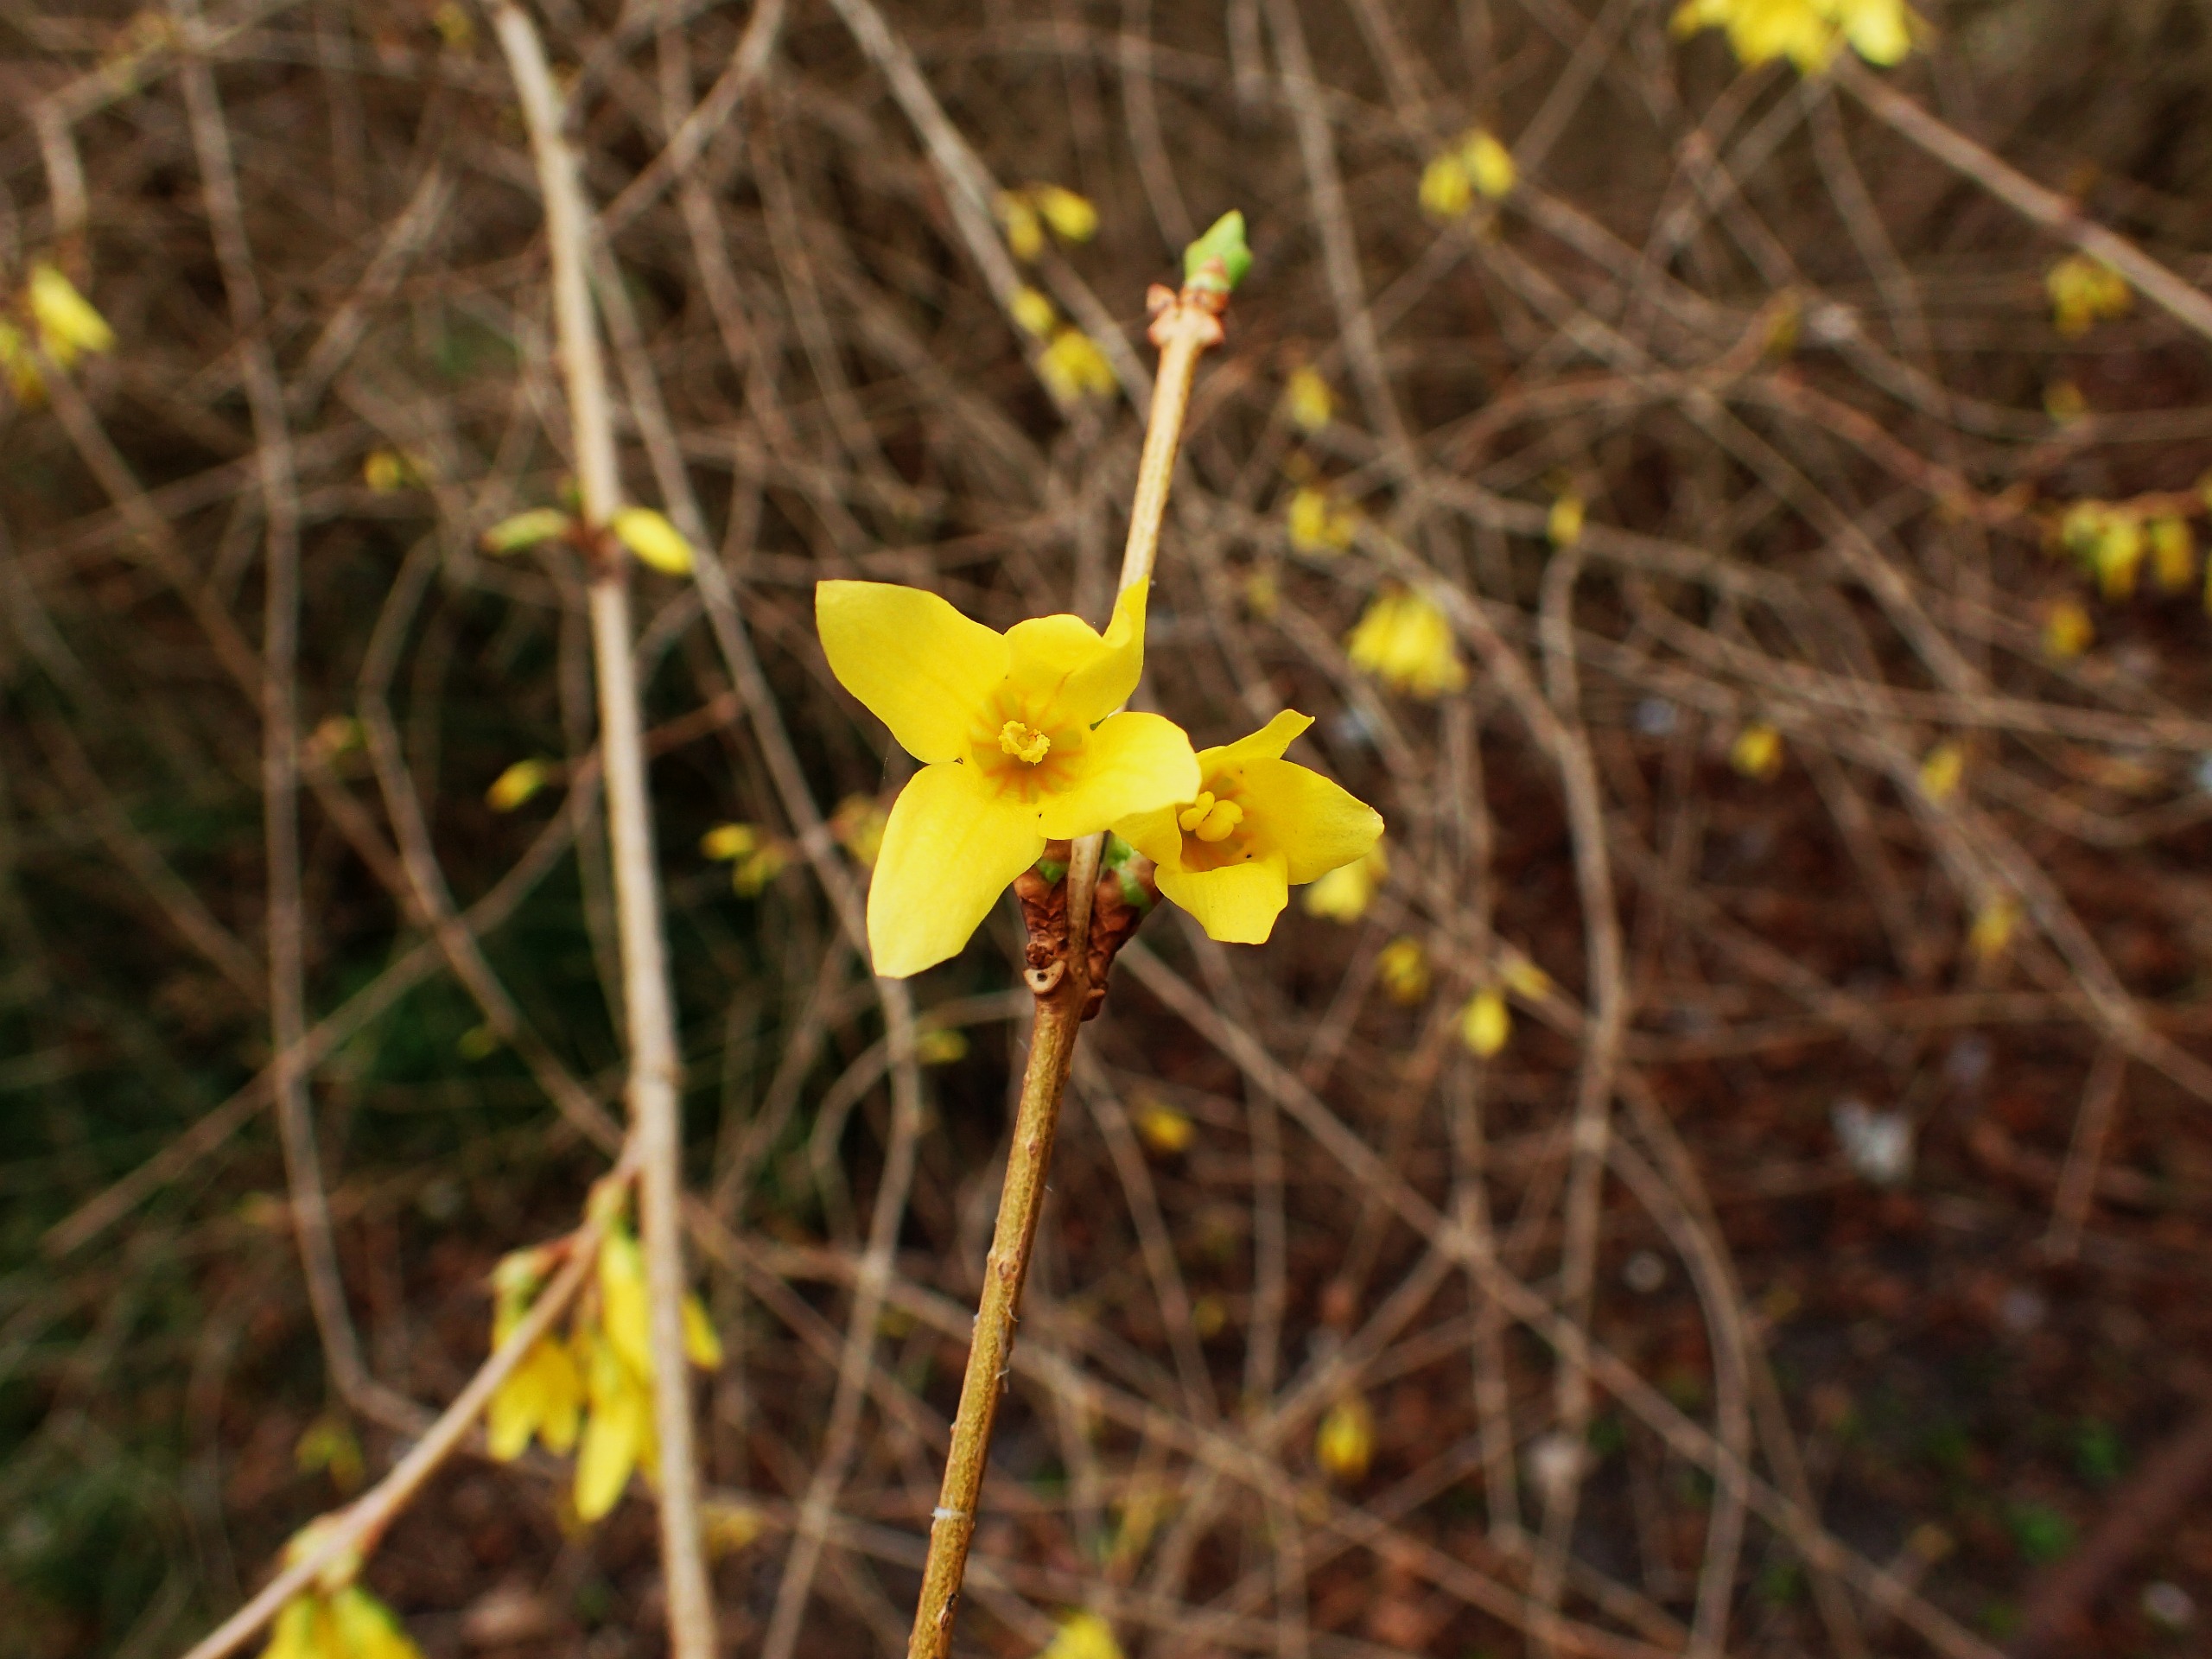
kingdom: Plantae
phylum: Tracheophyta
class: Magnoliopsida
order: Lamiales
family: Oleaceae
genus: Forsythia
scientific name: Forsythia intermedia
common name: Have-forsythia
